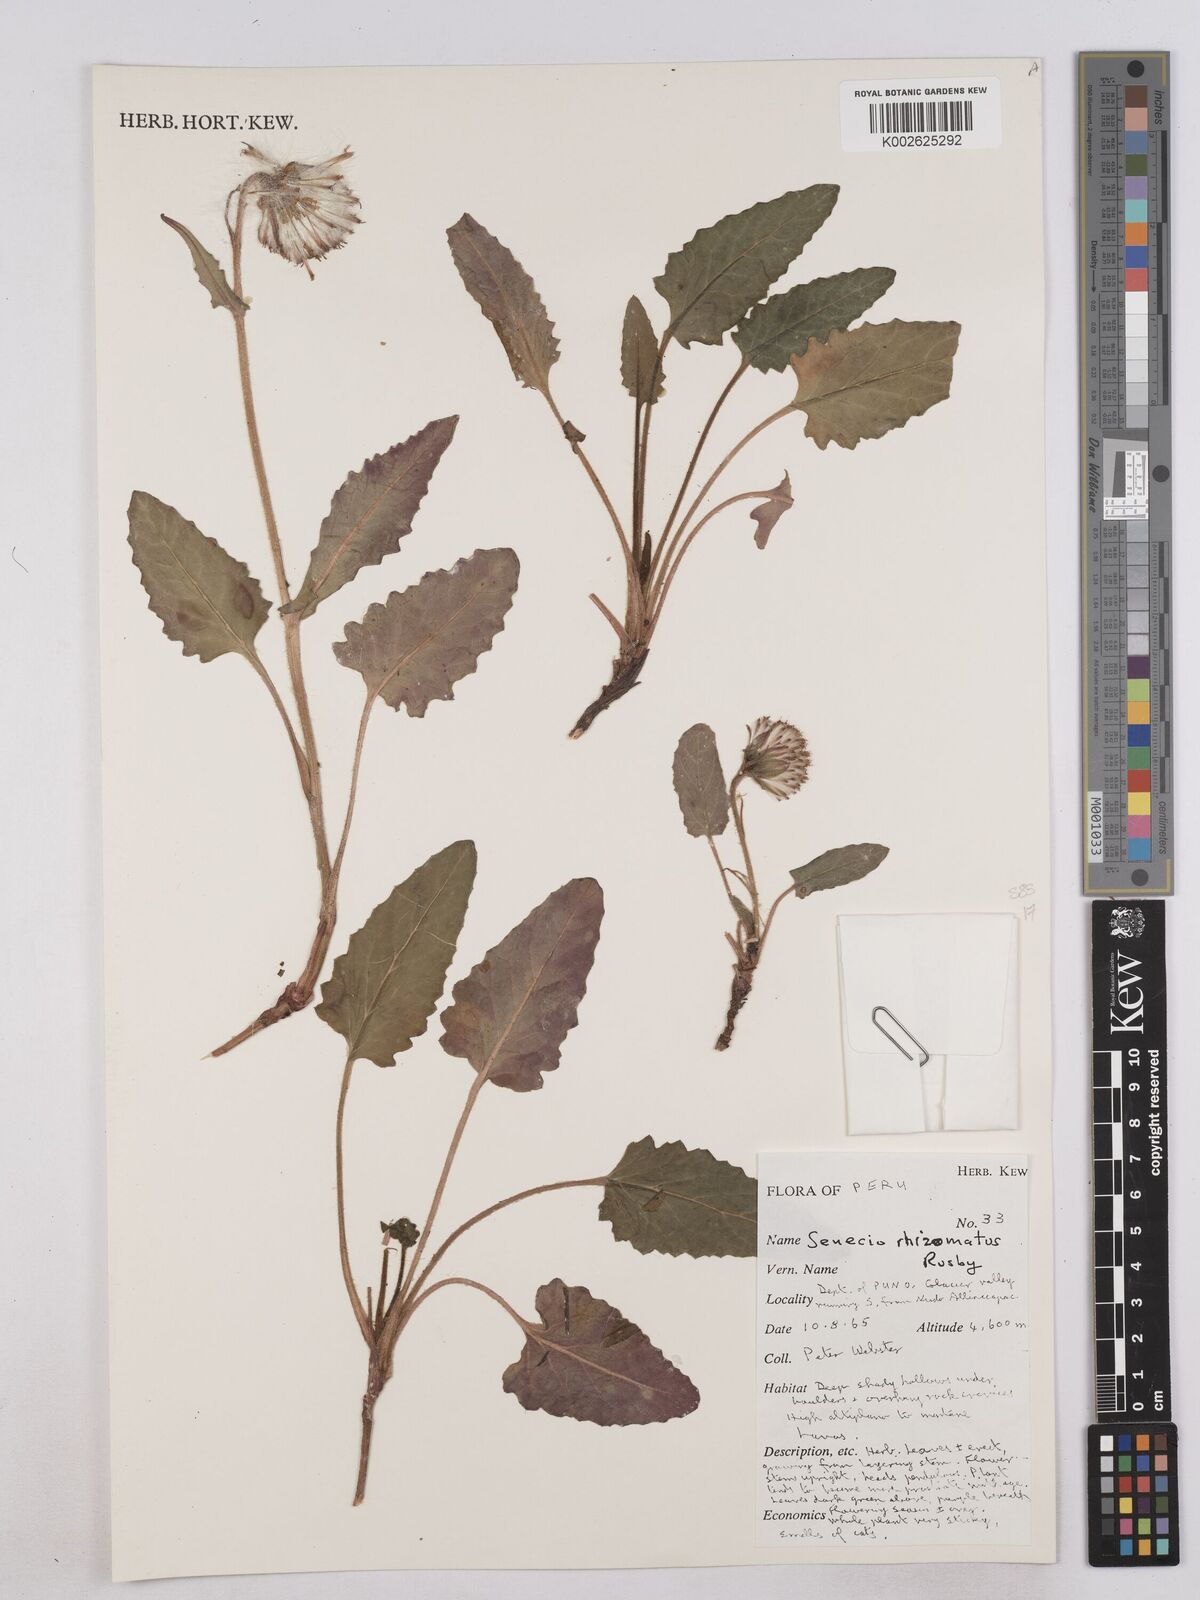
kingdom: Plantae
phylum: Tracheophyta
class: Magnoliopsida
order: Asterales
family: Asteraceae
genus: Senecio
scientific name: Senecio rhizomatus
